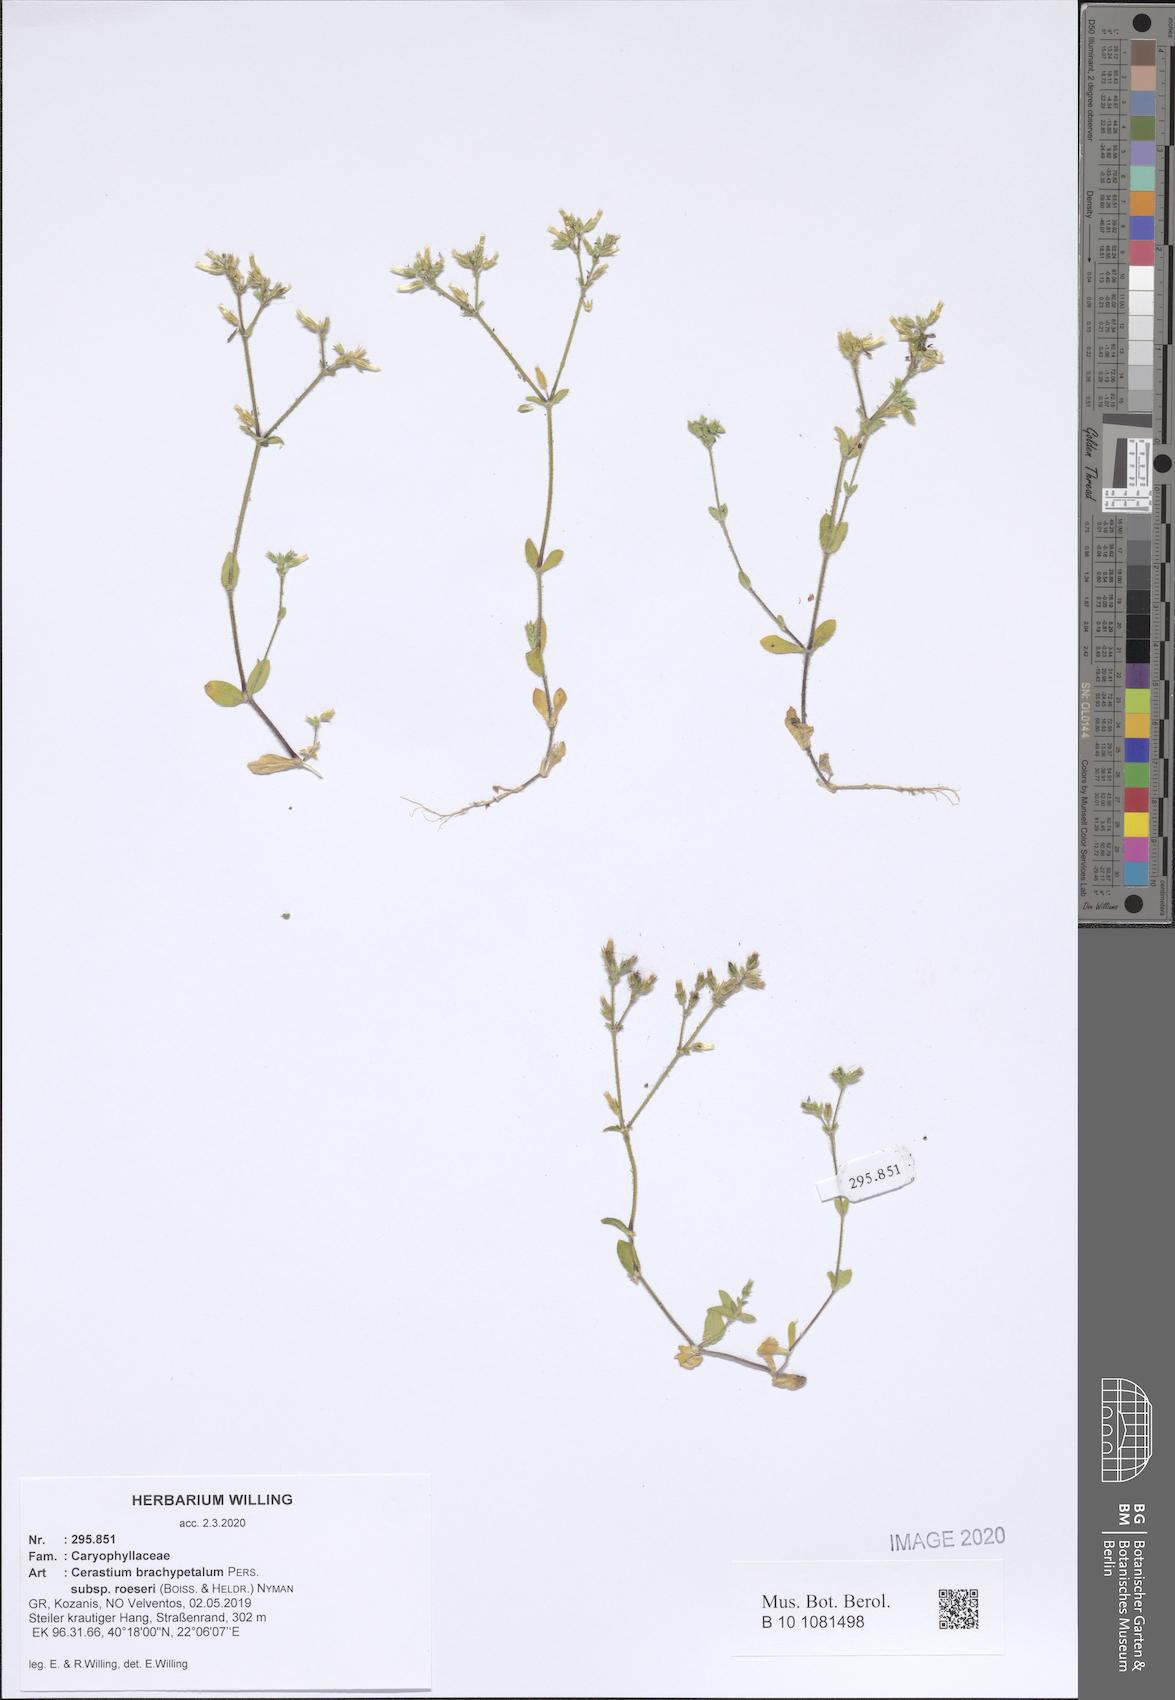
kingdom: Plantae
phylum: Tracheophyta
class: Magnoliopsida
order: Caryophyllales
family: Caryophyllaceae
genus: Cerastium
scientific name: Cerastium brachypetalum
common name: Grey mouse-ear
